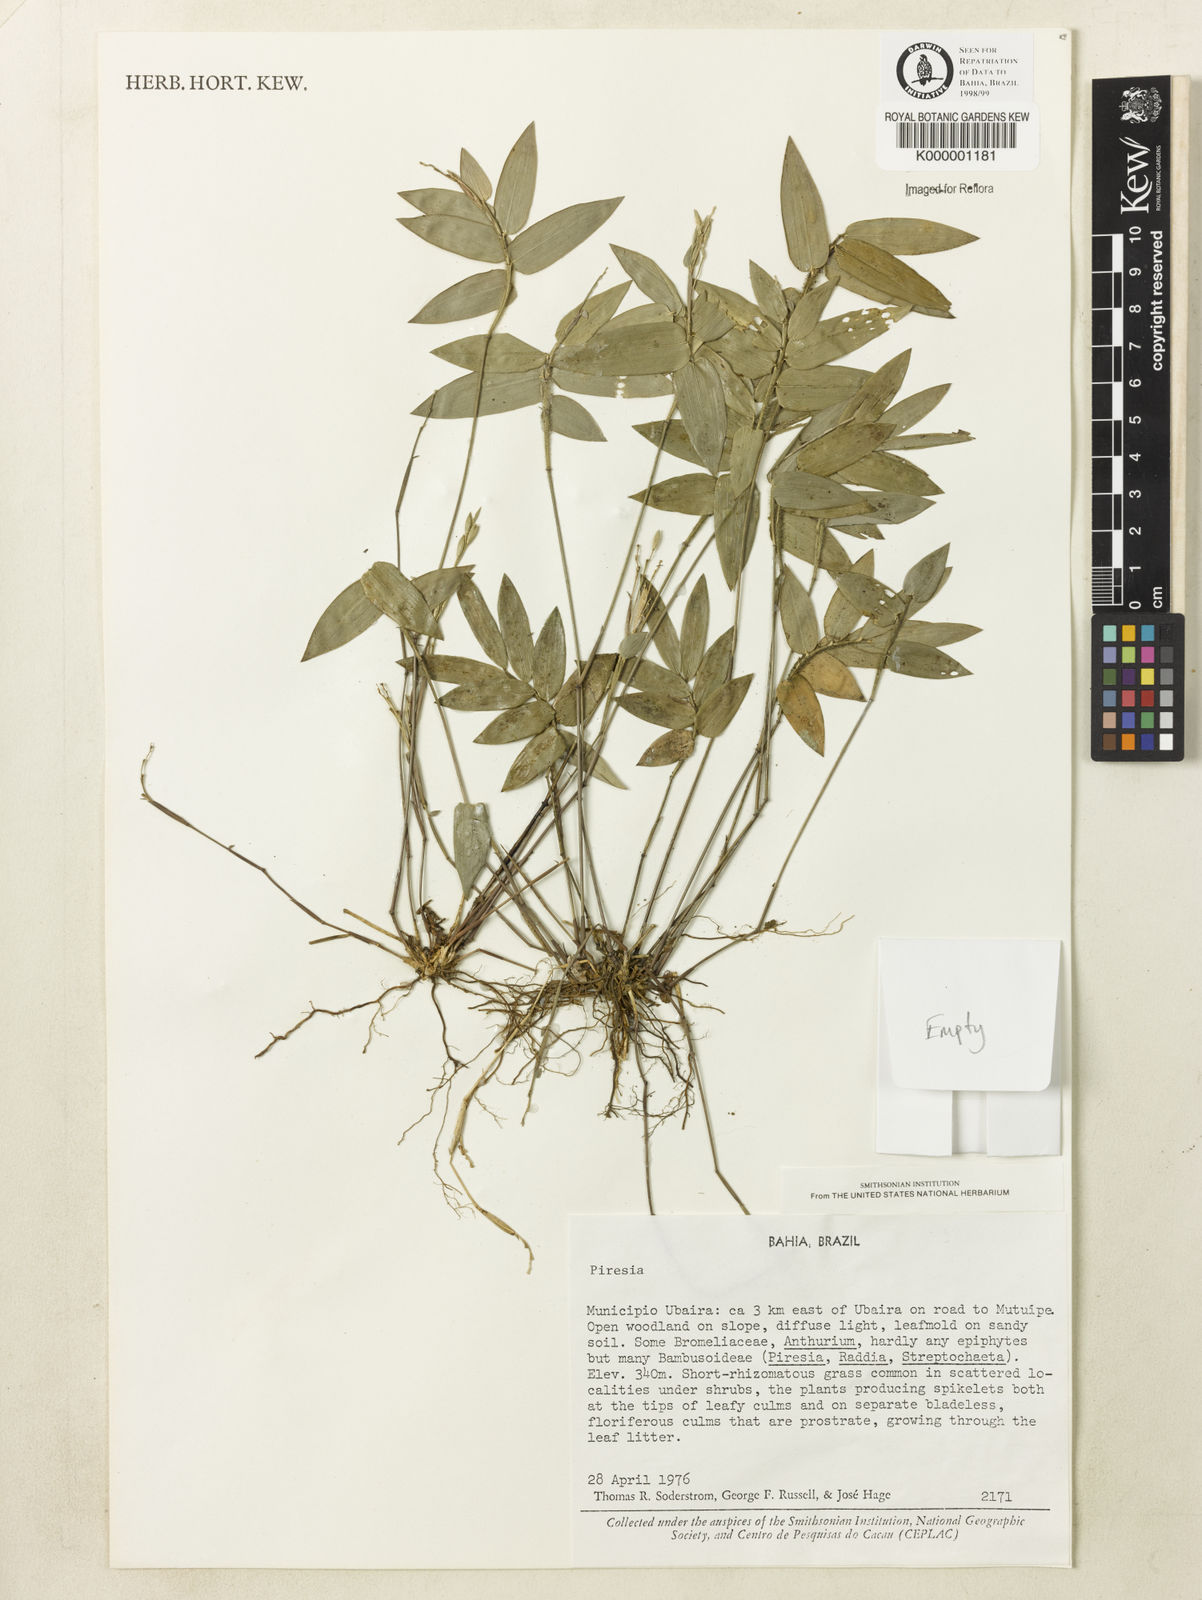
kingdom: Plantae
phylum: Tracheophyta
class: Liliopsida
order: Poales
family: Poaceae
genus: Piresia
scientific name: Piresia
